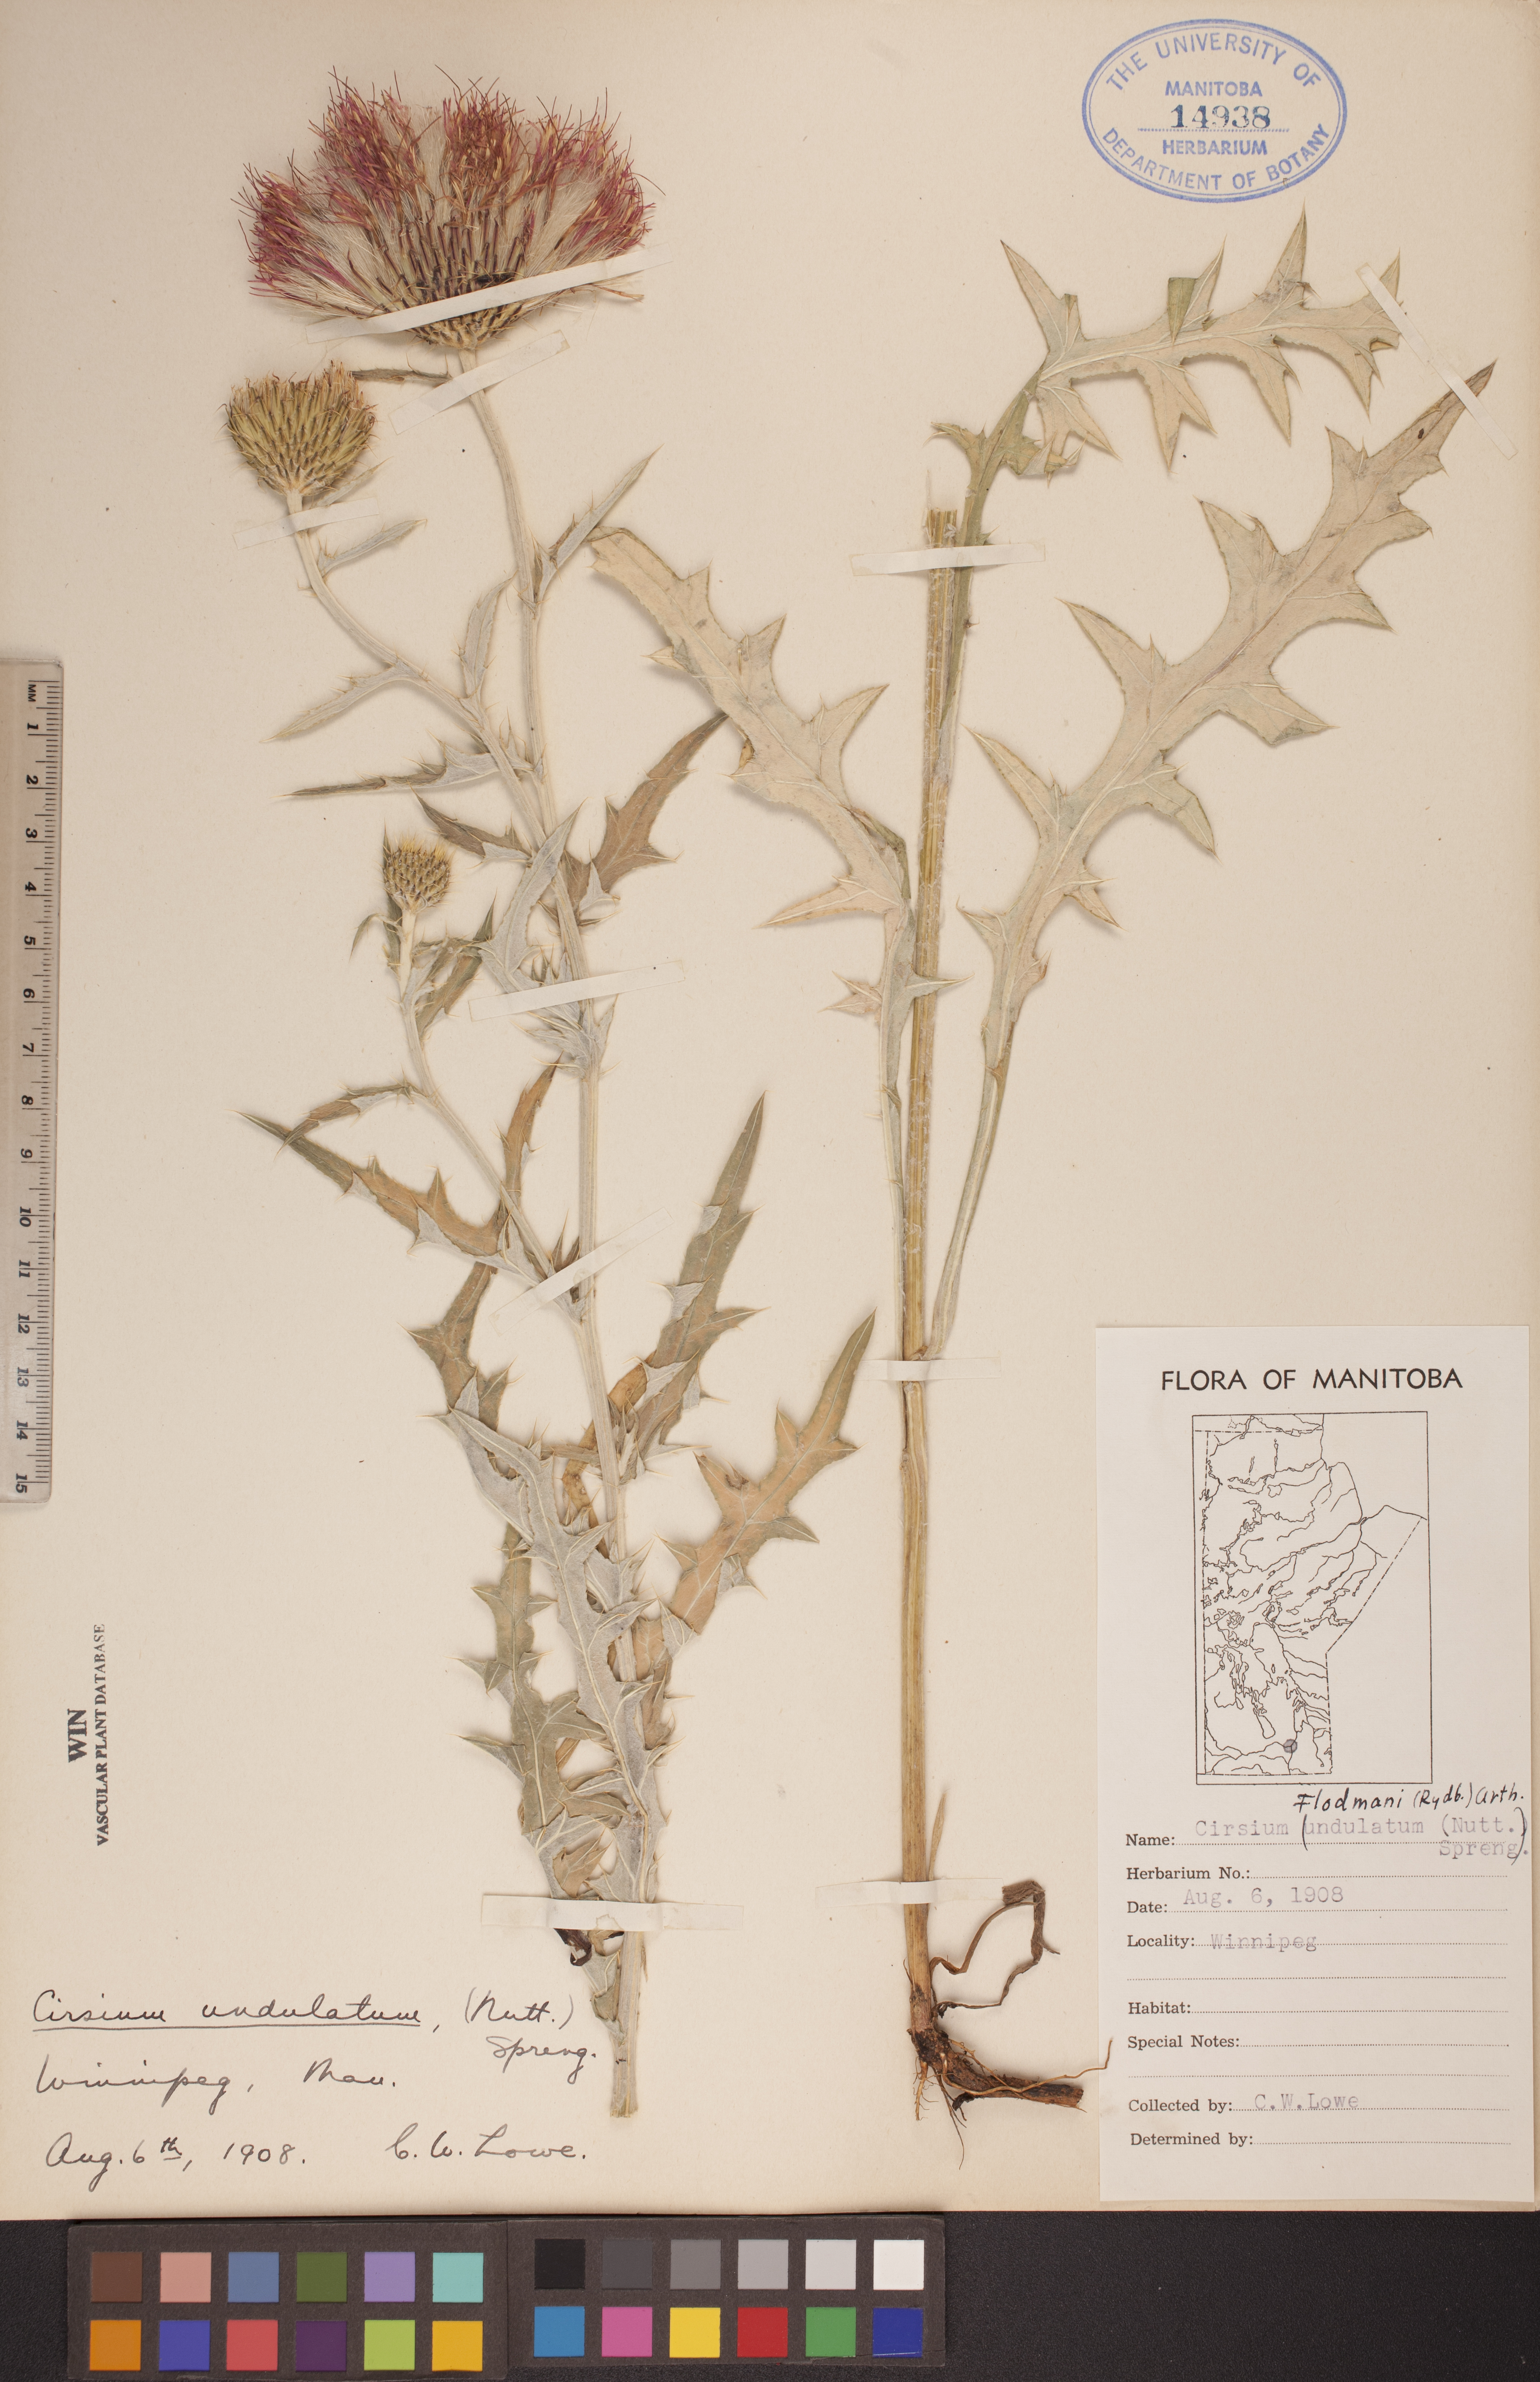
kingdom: Plantae
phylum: Tracheophyta
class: Magnoliopsida
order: Asterales
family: Asteraceae
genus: Cirsium
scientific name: Cirsium flodmanii
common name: Flodman's thistle
